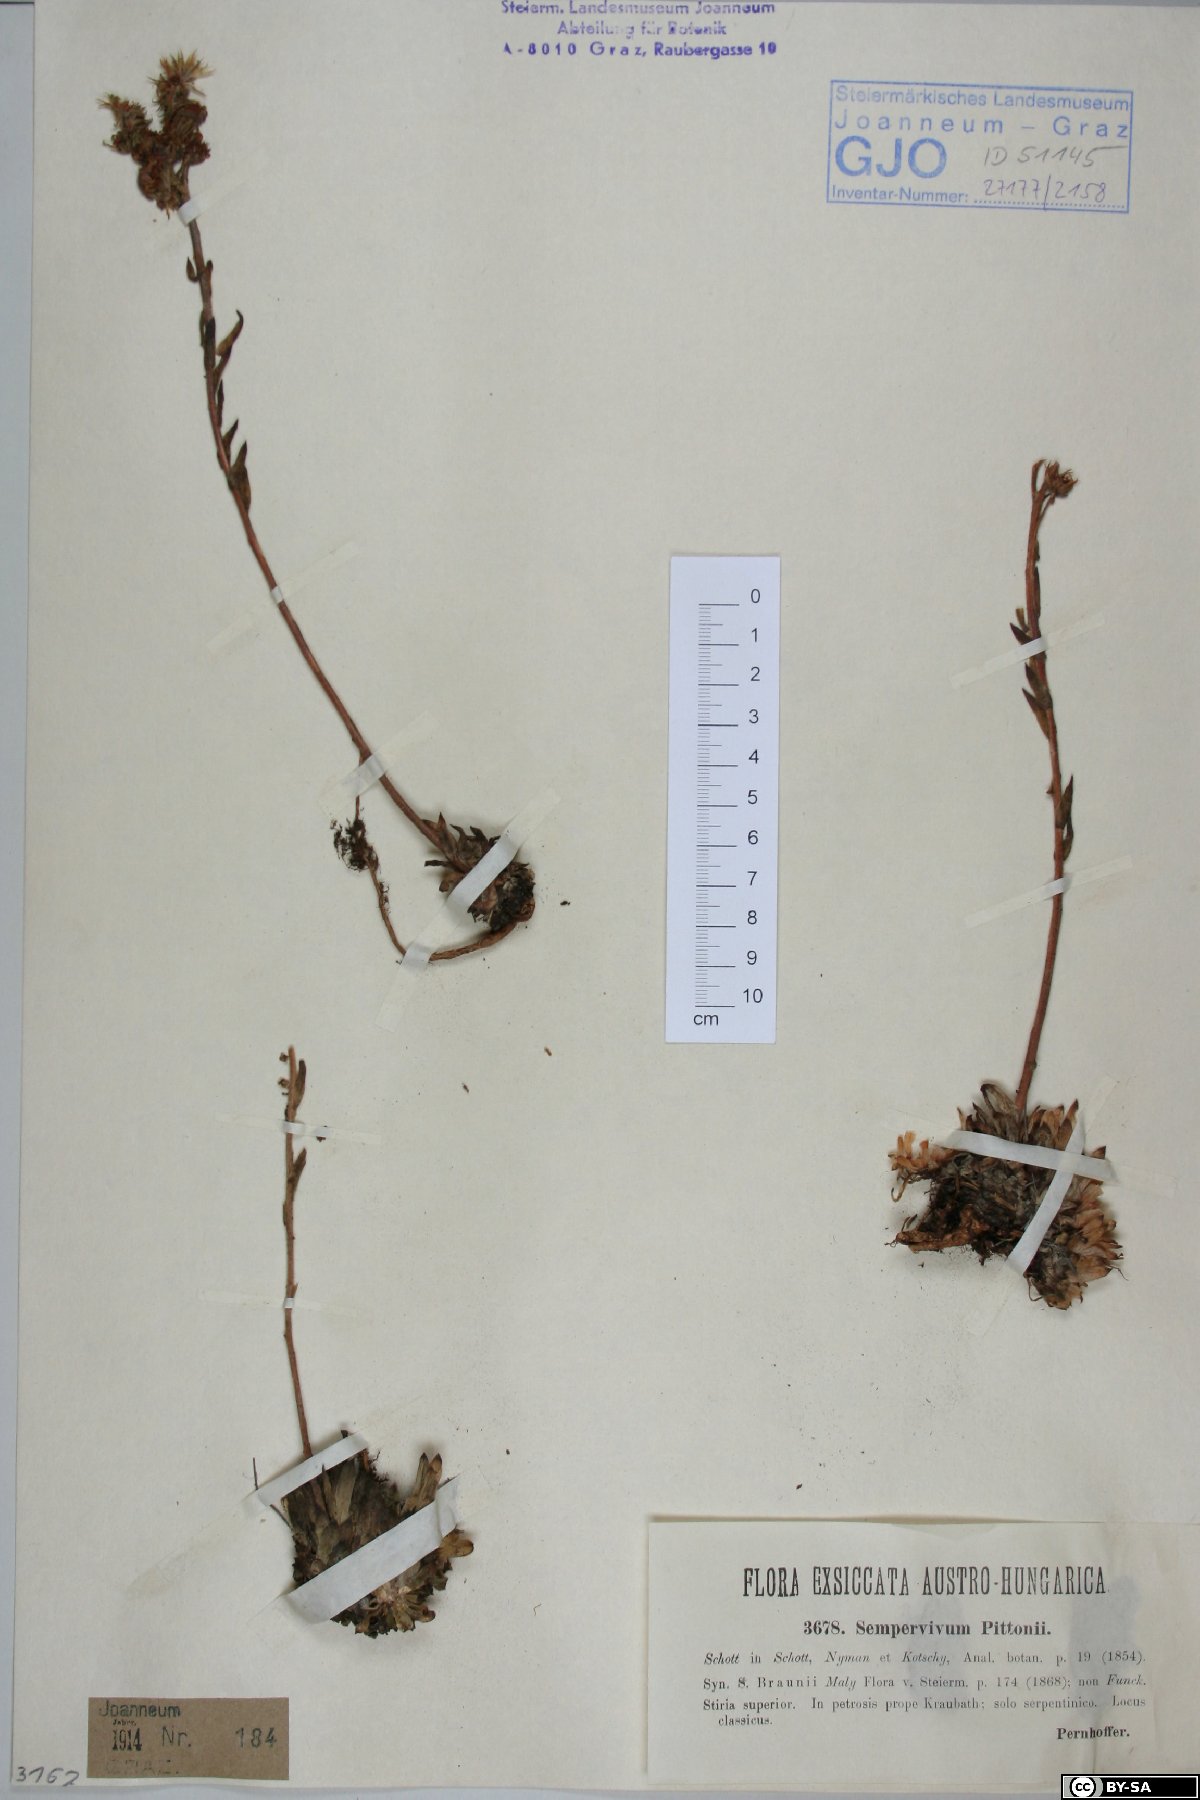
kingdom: Plantae
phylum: Tracheophyta
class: Magnoliopsida
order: Saxifragales
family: Crassulaceae
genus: Sempervivum
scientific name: Sempervivum pittonii
